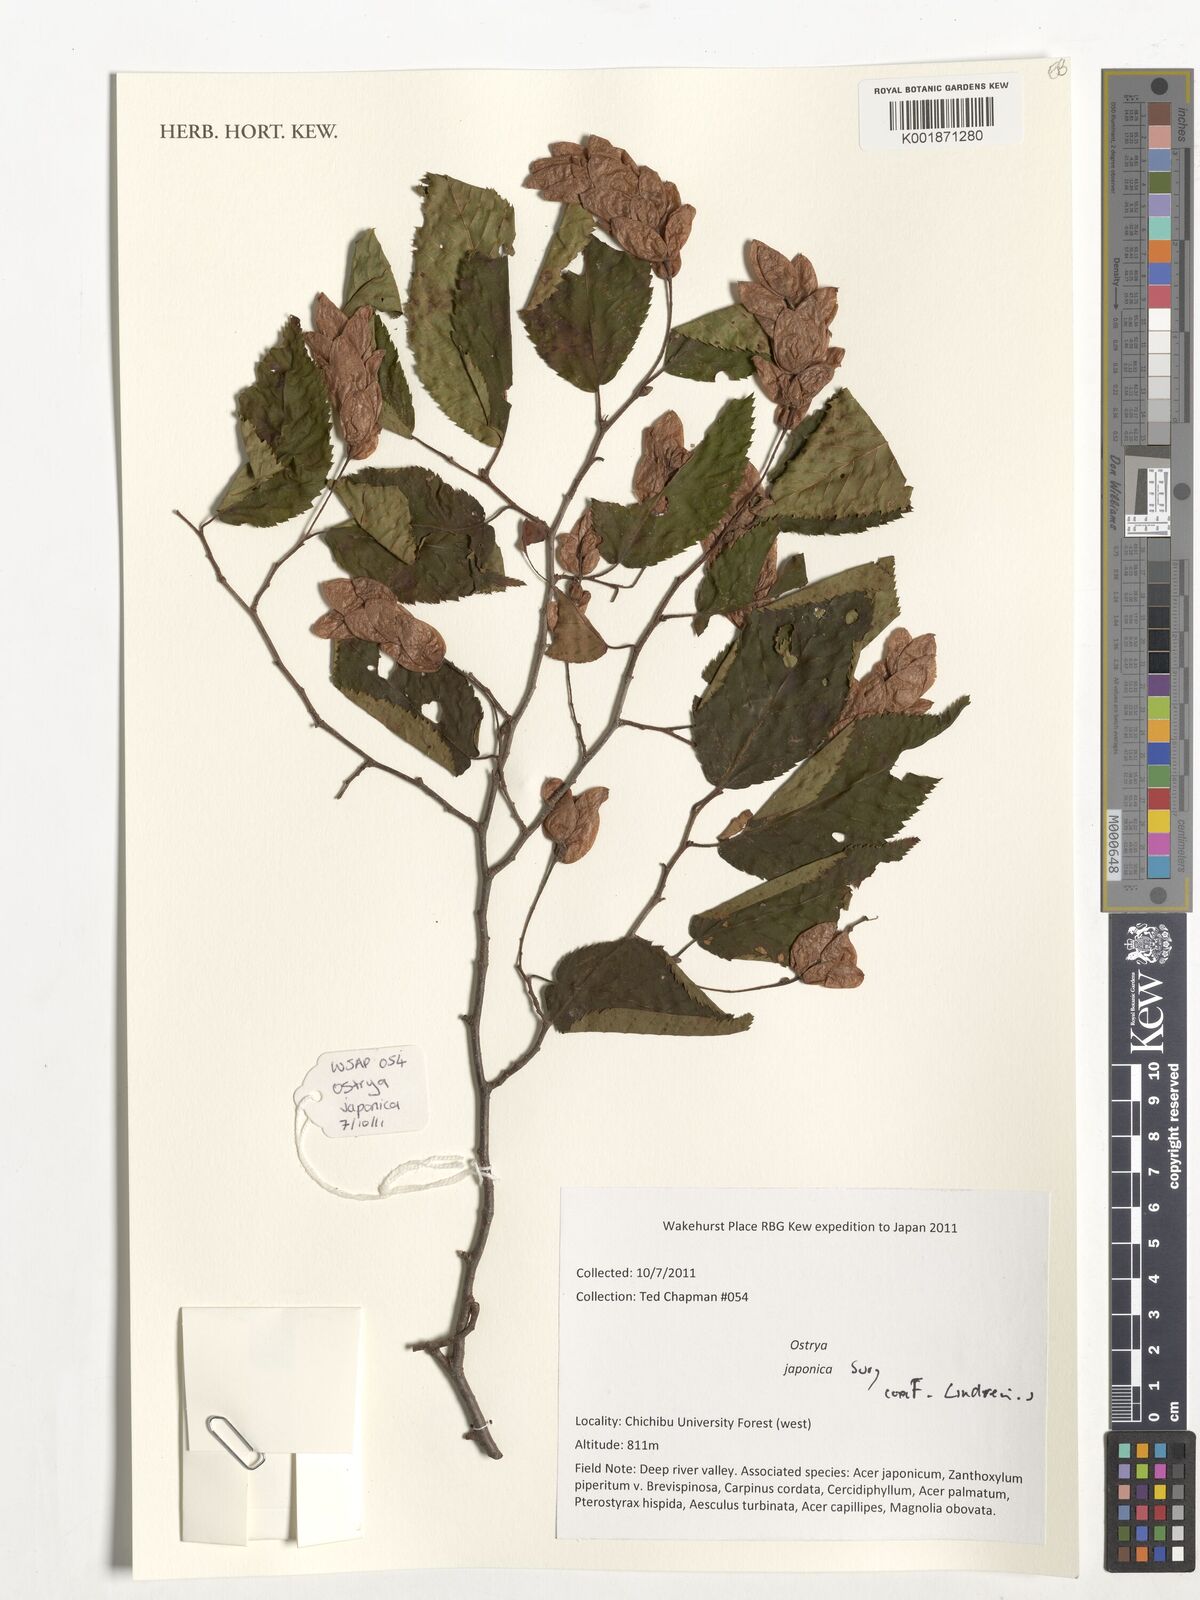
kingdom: Plantae
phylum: Tracheophyta
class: Magnoliopsida
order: Fagales
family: Betulaceae
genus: Ostrya
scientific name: Ostrya japonica
